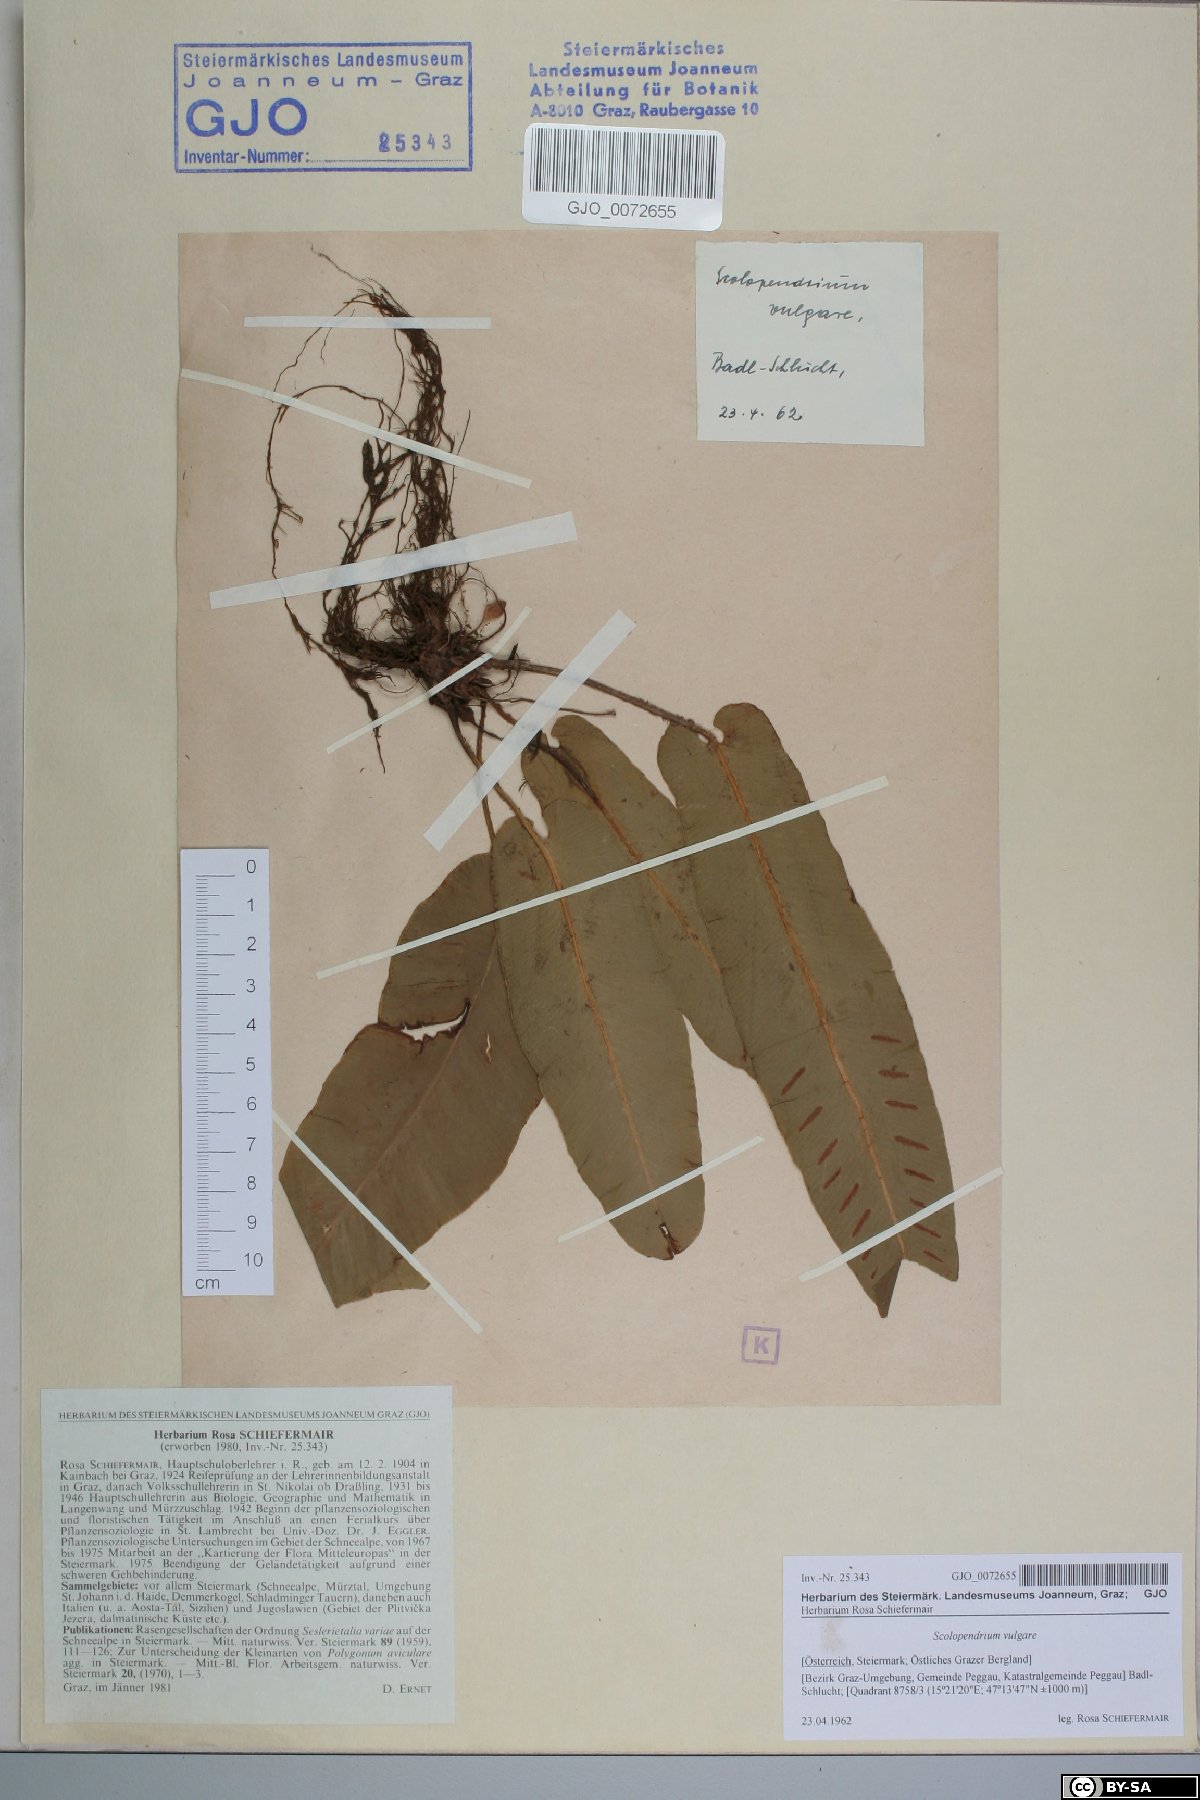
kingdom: Plantae
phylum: Tracheophyta
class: Polypodiopsida
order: Polypodiales
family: Aspleniaceae
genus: Asplenium
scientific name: Asplenium scolopendrium
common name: Hart's-tongue fern
